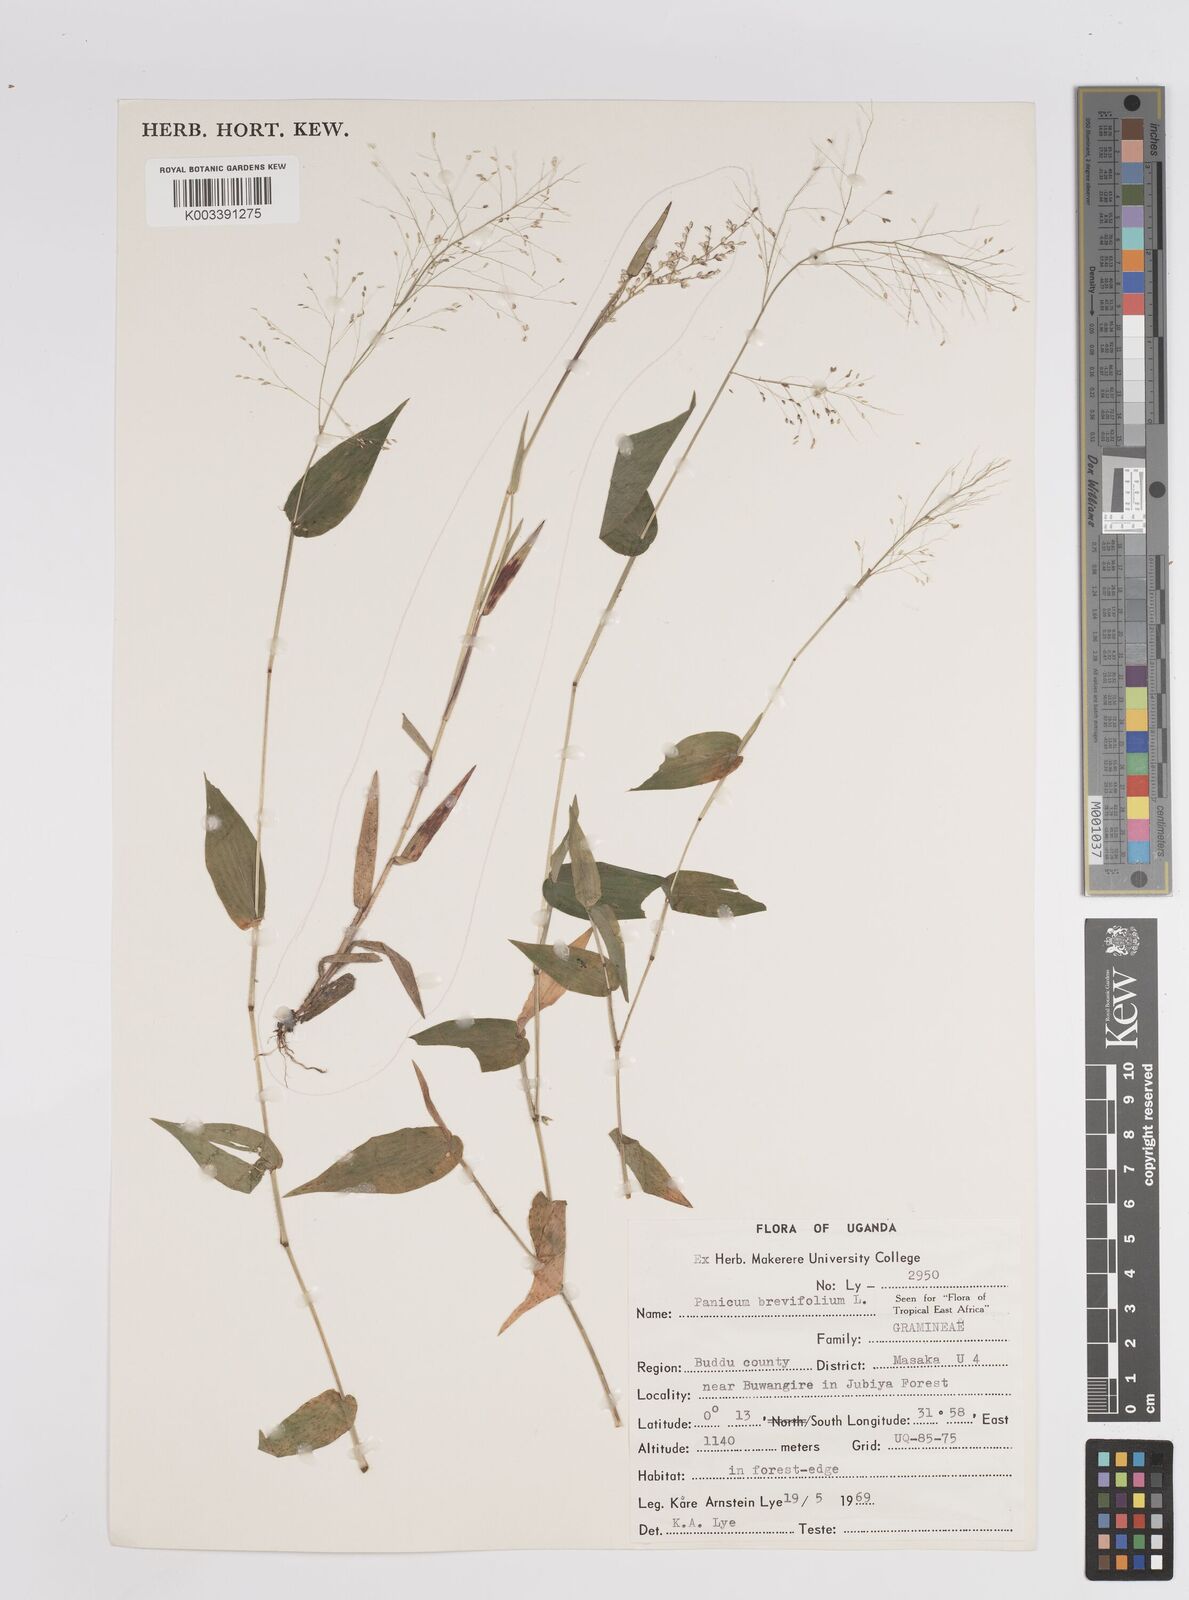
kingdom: Plantae
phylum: Tracheophyta
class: Liliopsida
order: Poales
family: Poaceae
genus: Panicum
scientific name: Panicum brevifolium
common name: Shortleaf panic grass
